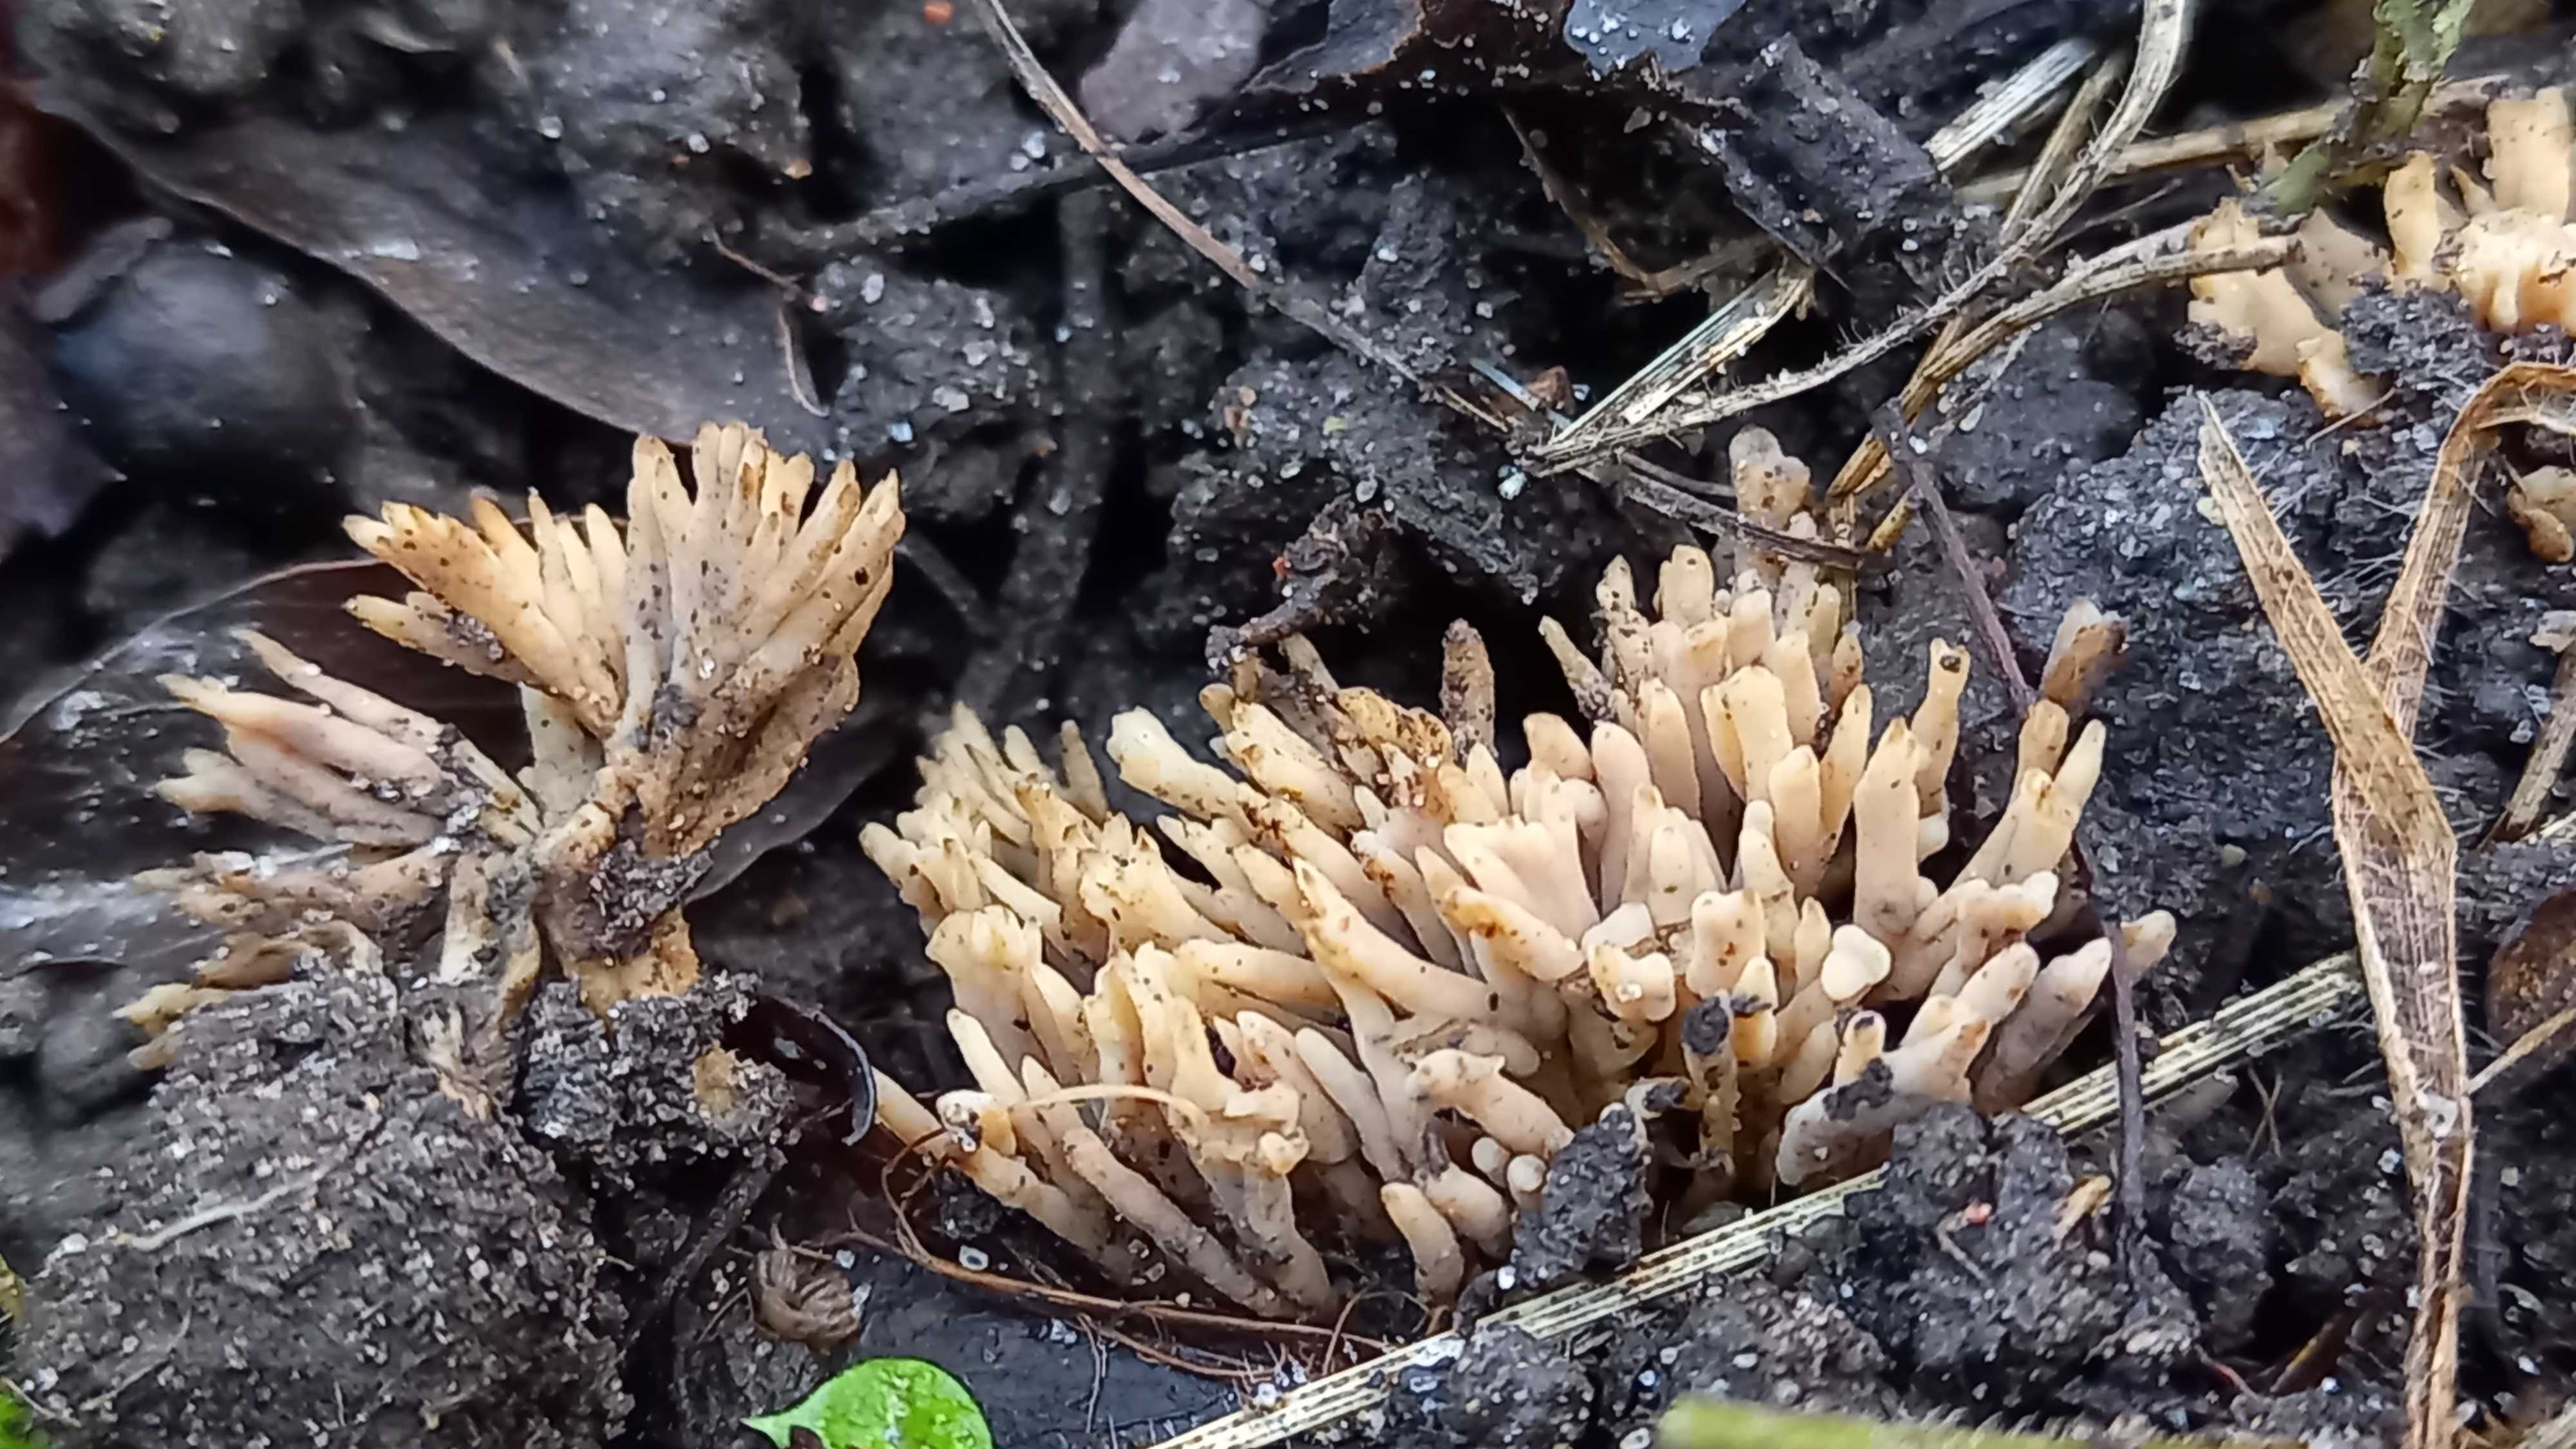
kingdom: Fungi
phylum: Basidiomycota
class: Agaricomycetes
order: Tremellodendropsidales
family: Tremellodendropsidaceae
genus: Tremellodendropsis
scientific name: Tremellodendropsis tuberosa
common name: bævrekølle
